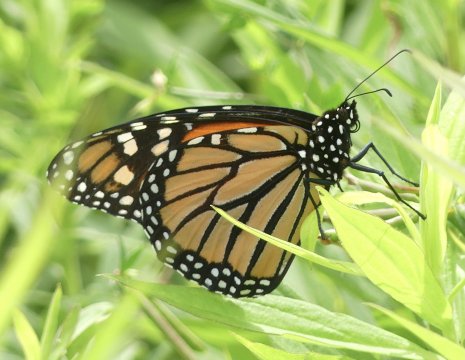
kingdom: Animalia
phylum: Arthropoda
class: Insecta
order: Lepidoptera
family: Nymphalidae
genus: Danaus
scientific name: Danaus plexippus
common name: Monarch
